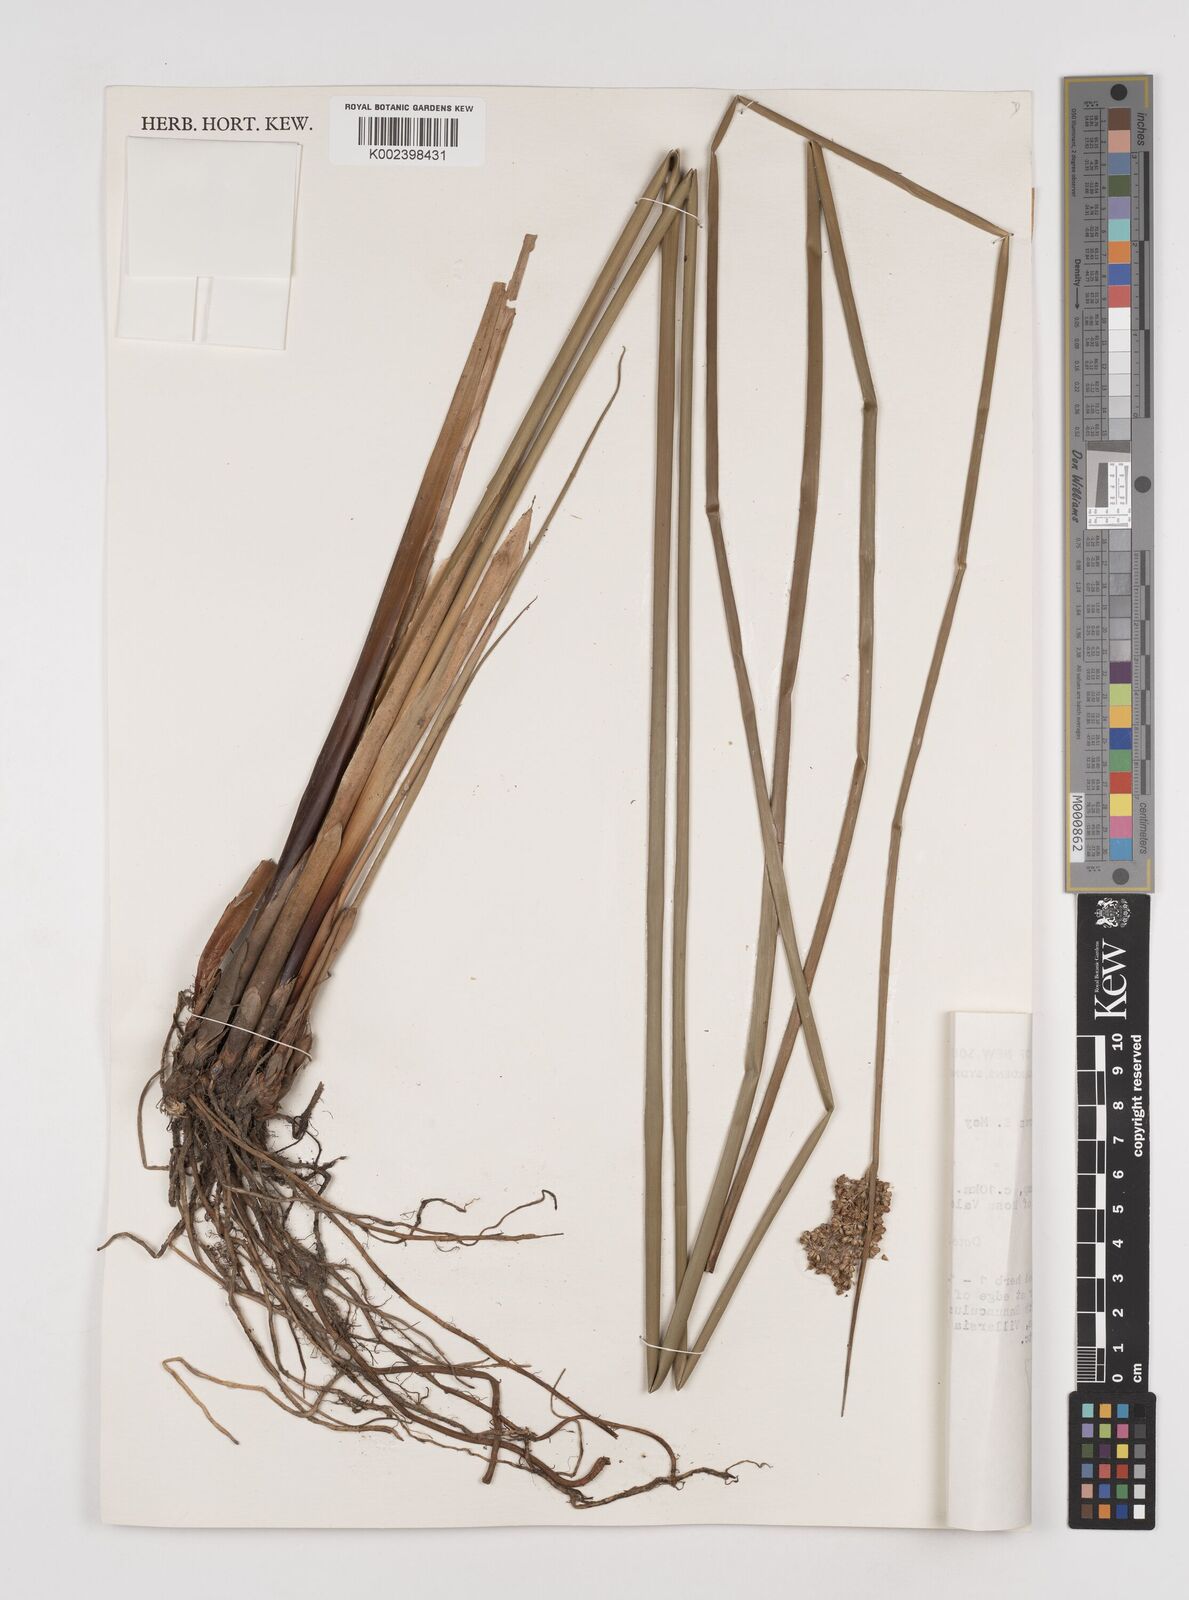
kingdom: Plantae
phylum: Tracheophyta
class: Liliopsida
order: Poales
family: Juncaceae
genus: Juncus
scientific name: Juncus procerus
